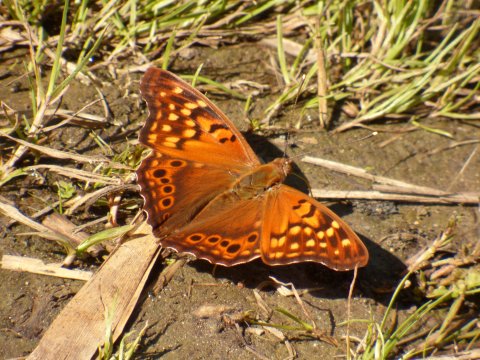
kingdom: Animalia
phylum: Arthropoda
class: Insecta
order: Lepidoptera
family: Nymphalidae
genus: Asterocampa
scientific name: Asterocampa clyton
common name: Tawny Emperor
